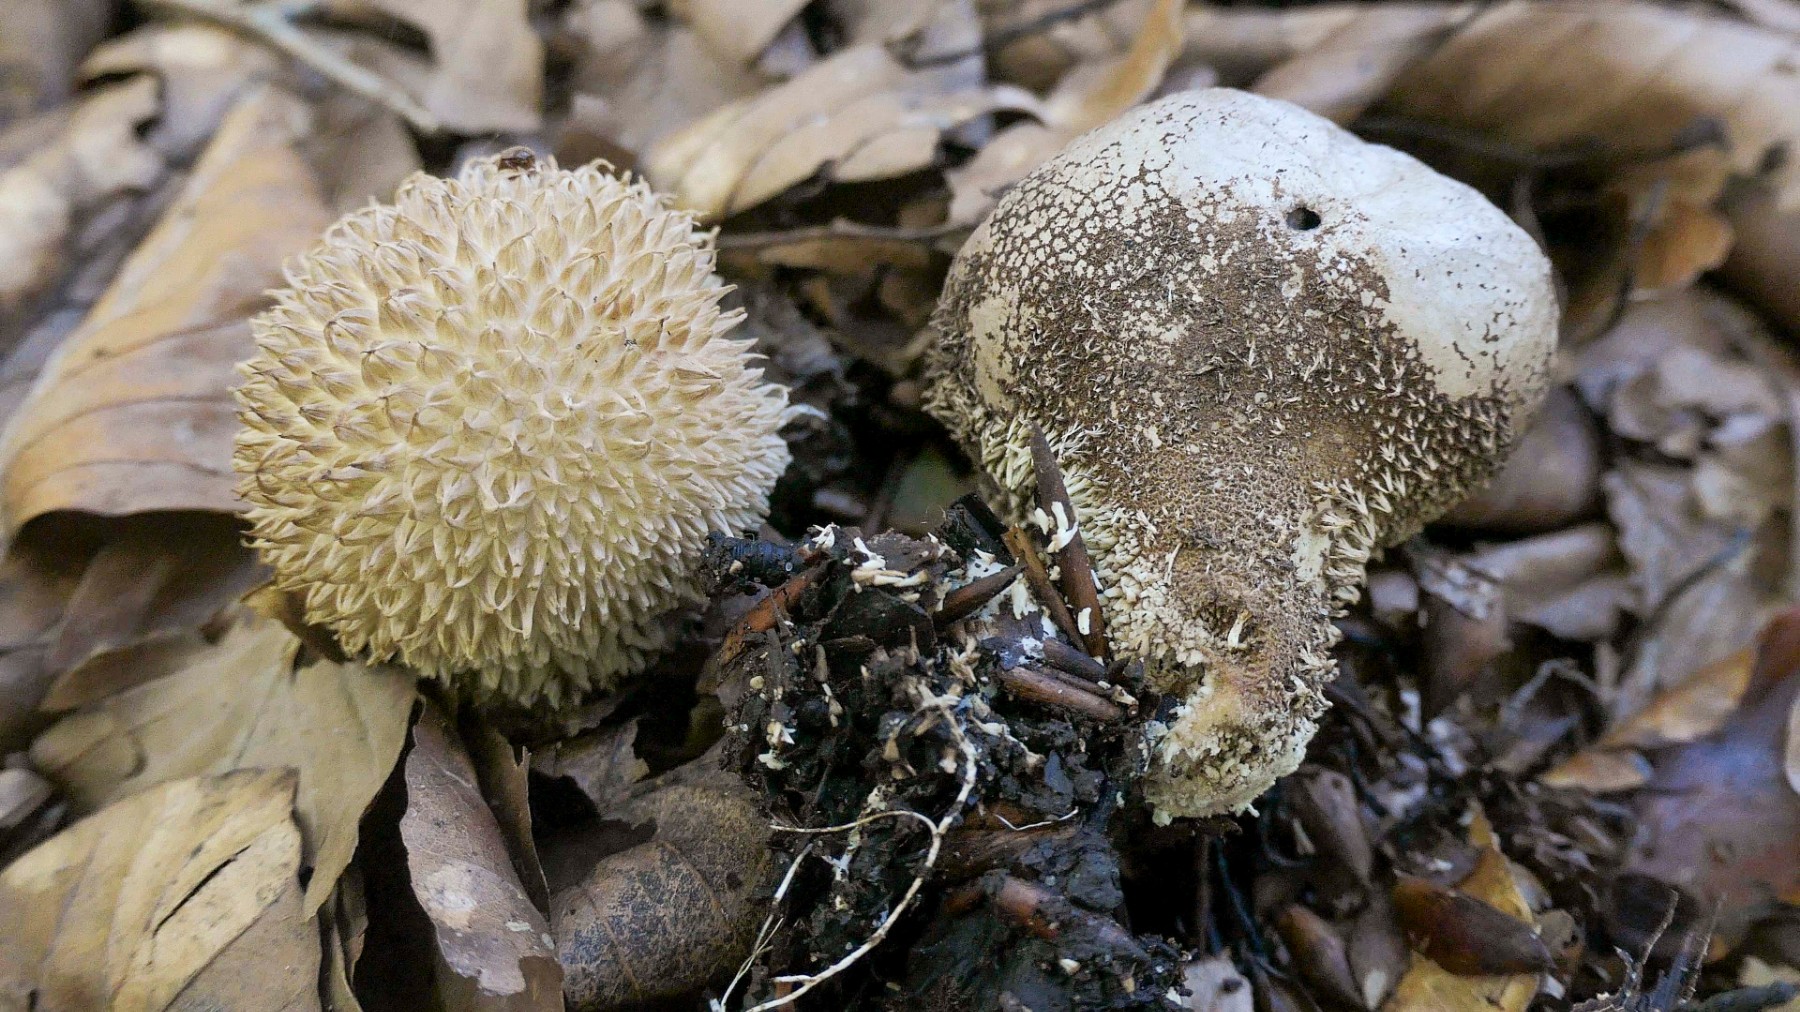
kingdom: Fungi
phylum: Basidiomycota
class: Agaricomycetes
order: Agaricales
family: Lycoperdaceae
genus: Lycoperdon
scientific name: Lycoperdon echinatum
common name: pindsvine-støvbold
